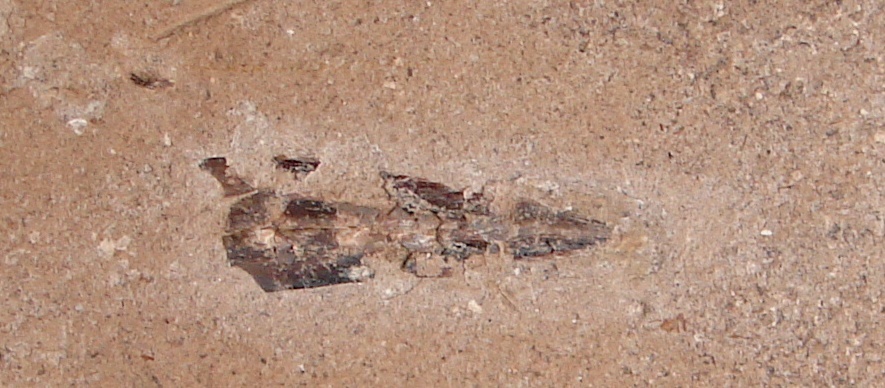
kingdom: Animalia
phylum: Mollusca
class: Cephalopoda
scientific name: Cephalopoda
